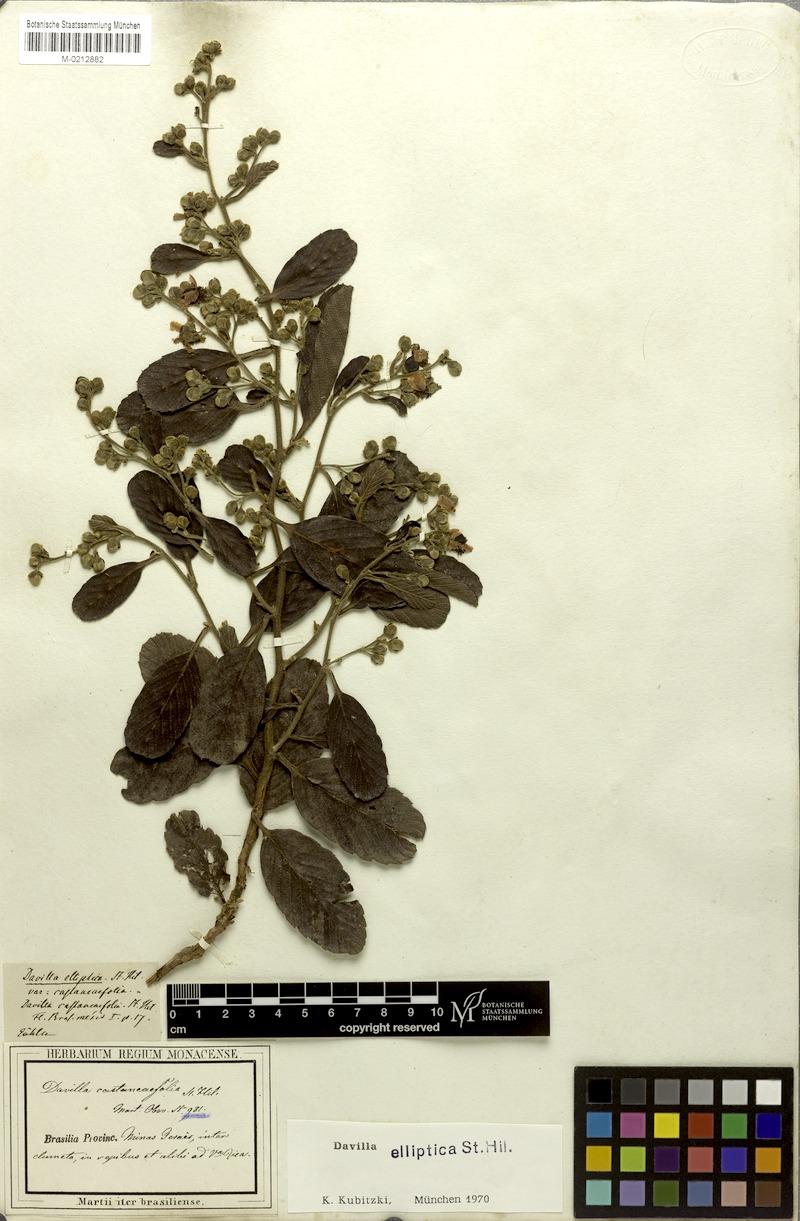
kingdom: Plantae
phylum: Tracheophyta
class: Magnoliopsida
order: Dilleniales
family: Dilleniaceae
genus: Davilla
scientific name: Davilla elliptica
